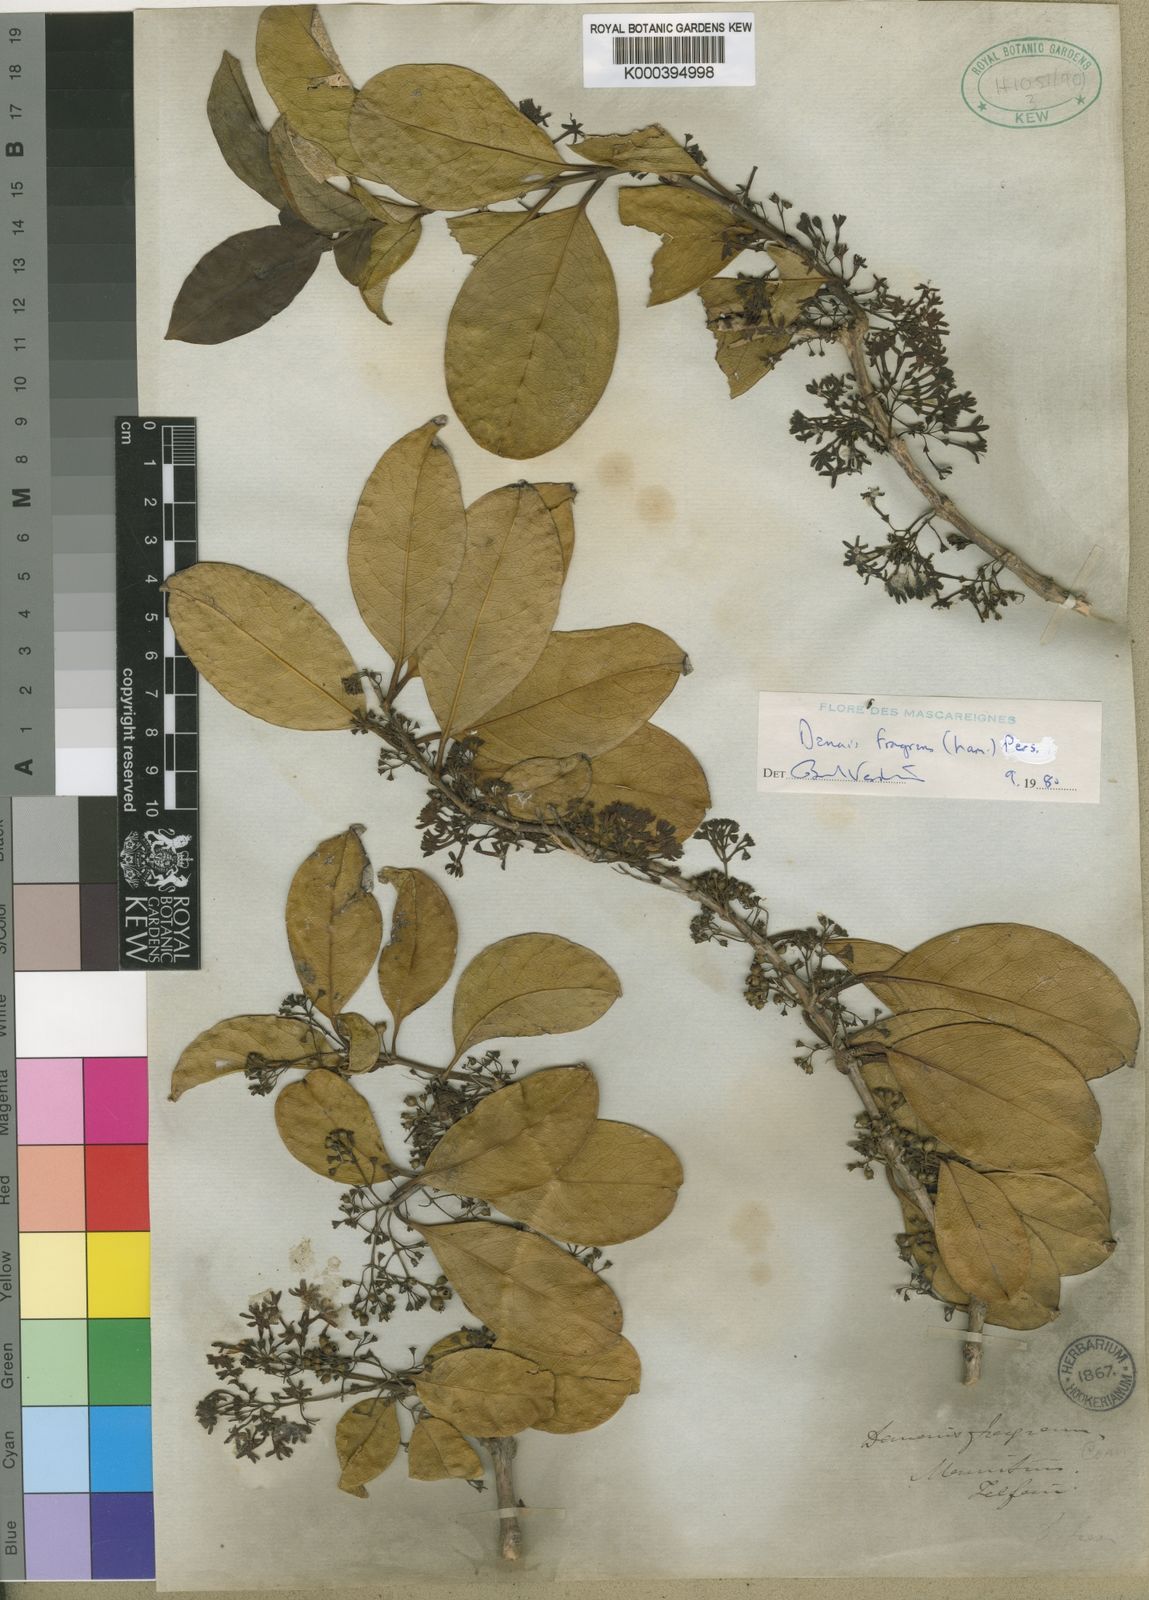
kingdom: Plantae
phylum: Tracheophyta
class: Magnoliopsida
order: Gentianales
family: Rubiaceae
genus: Danais
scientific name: Danais fragrans
